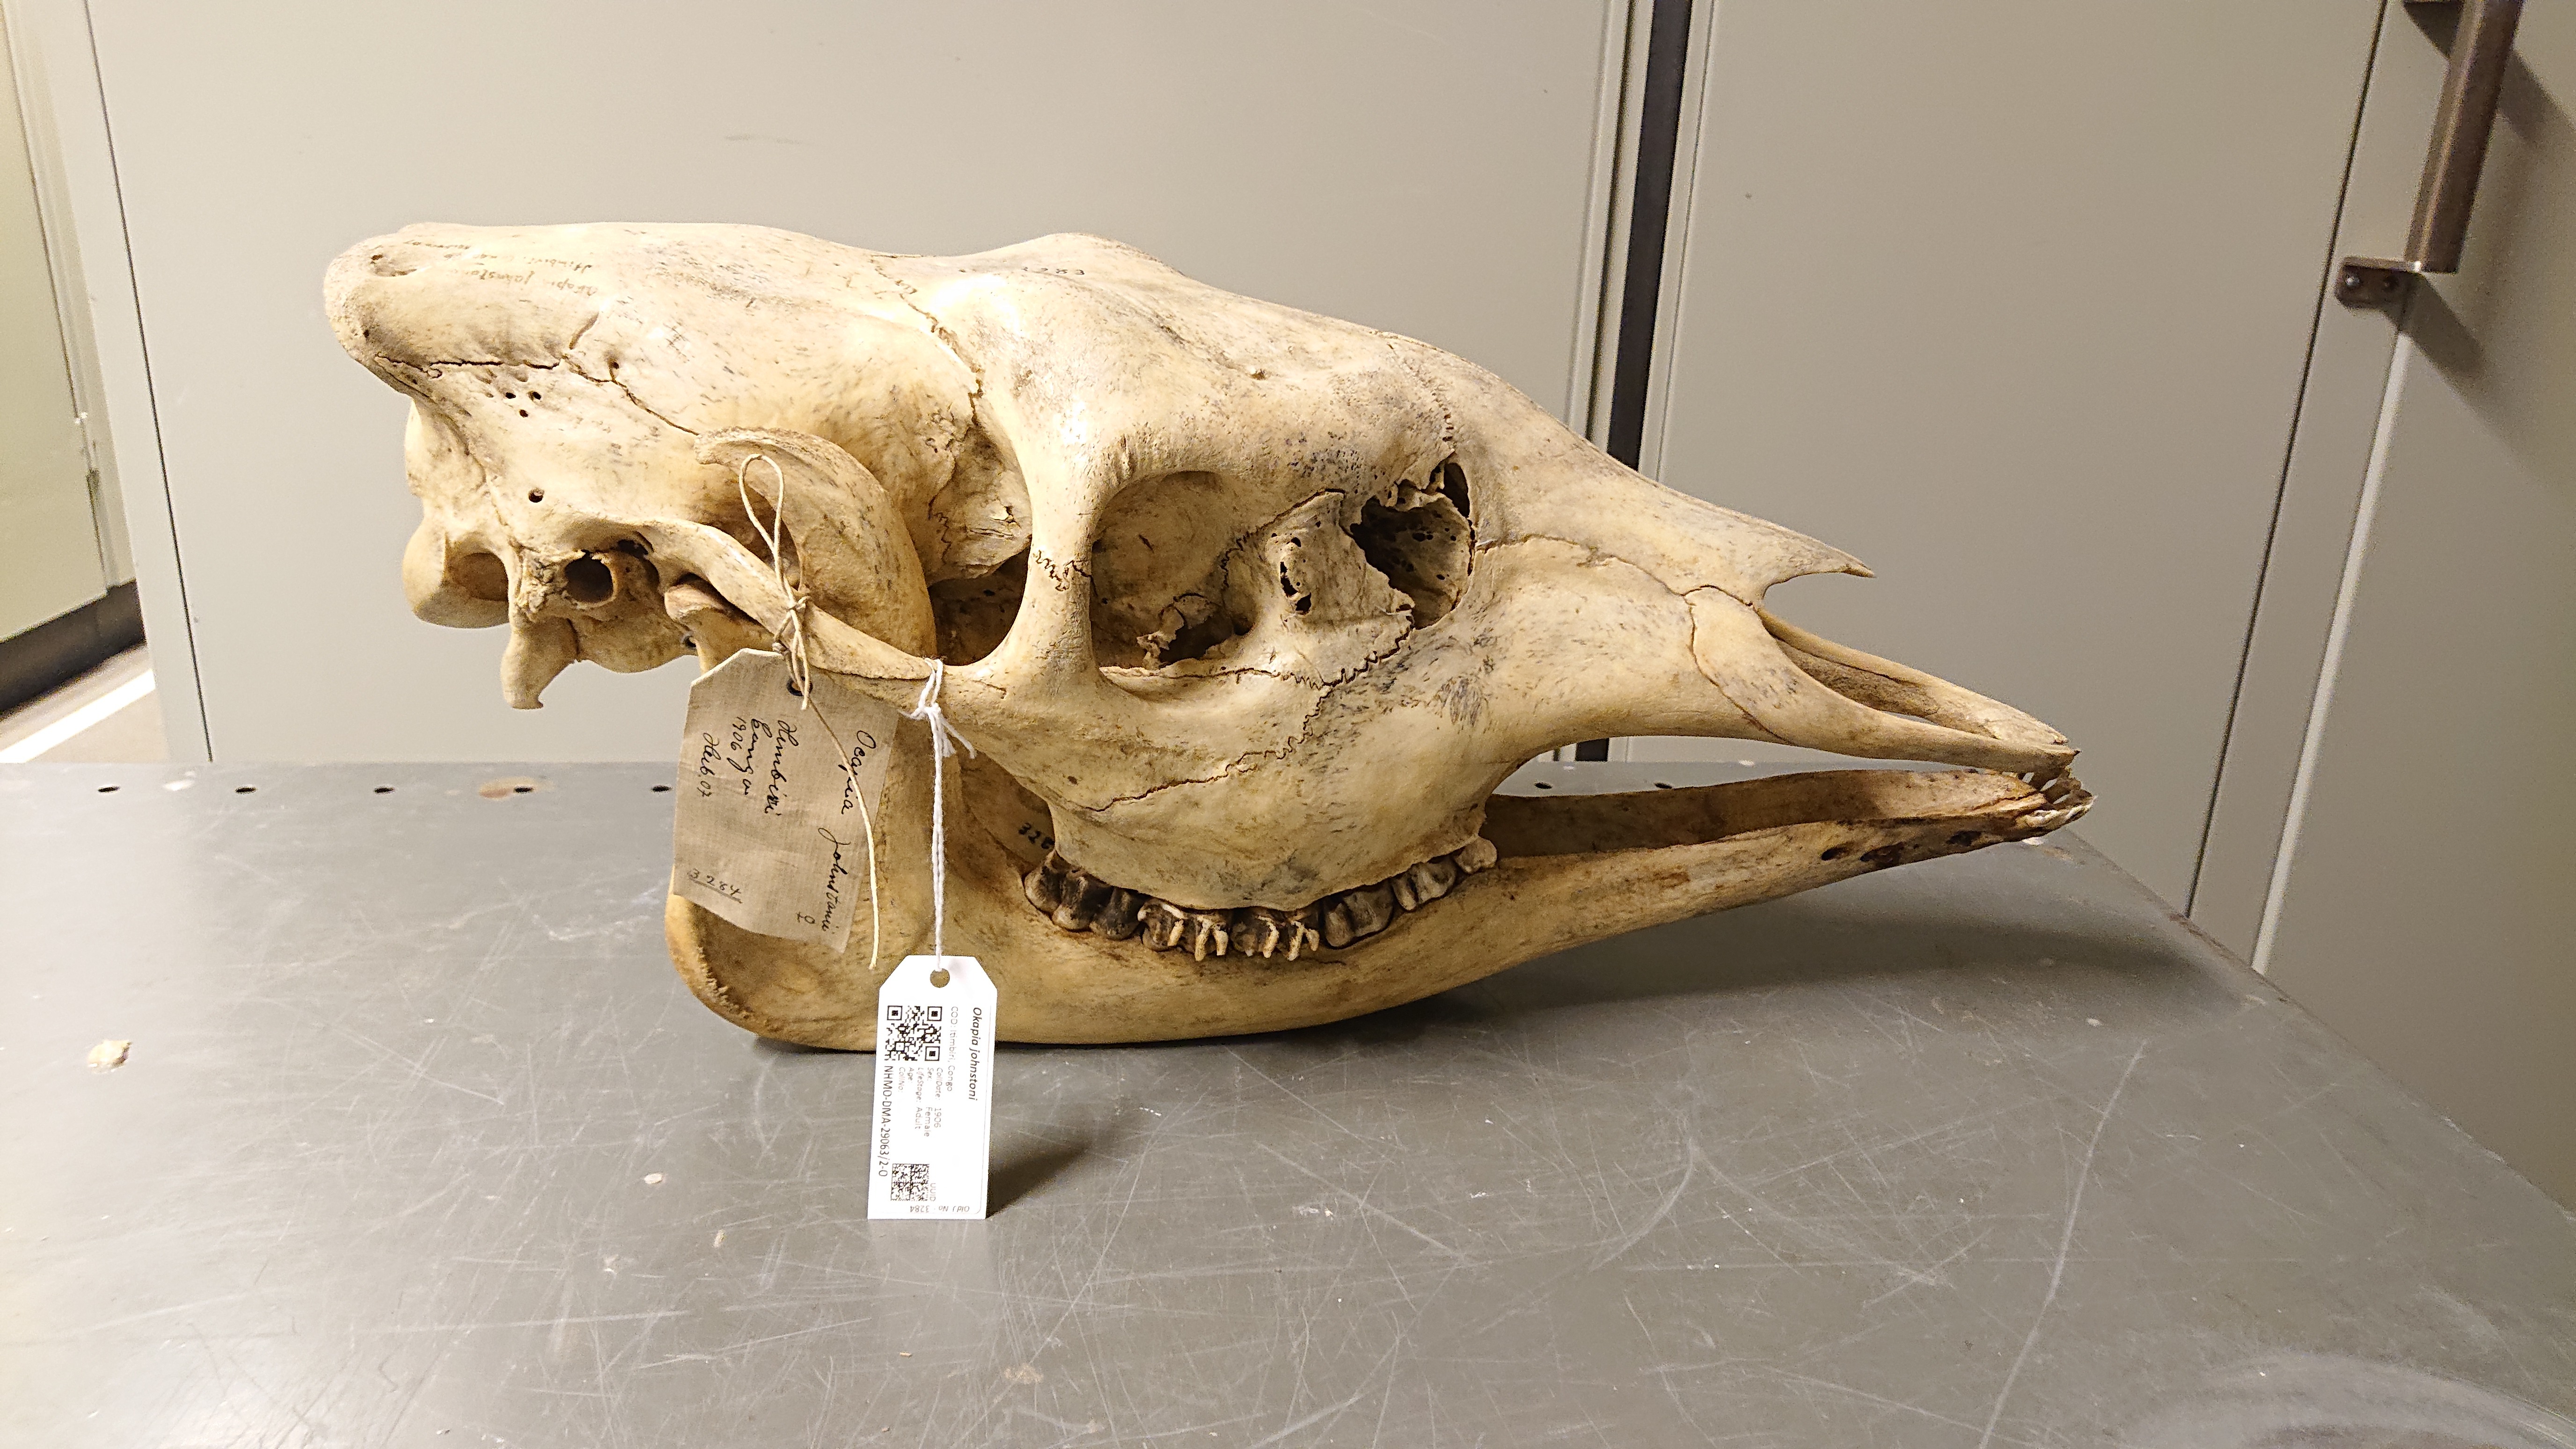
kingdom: Animalia
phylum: Chordata
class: Mammalia
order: Artiodactyla
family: Giraffidae
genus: Okapia
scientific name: Okapia johnstoni
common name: Okapi
